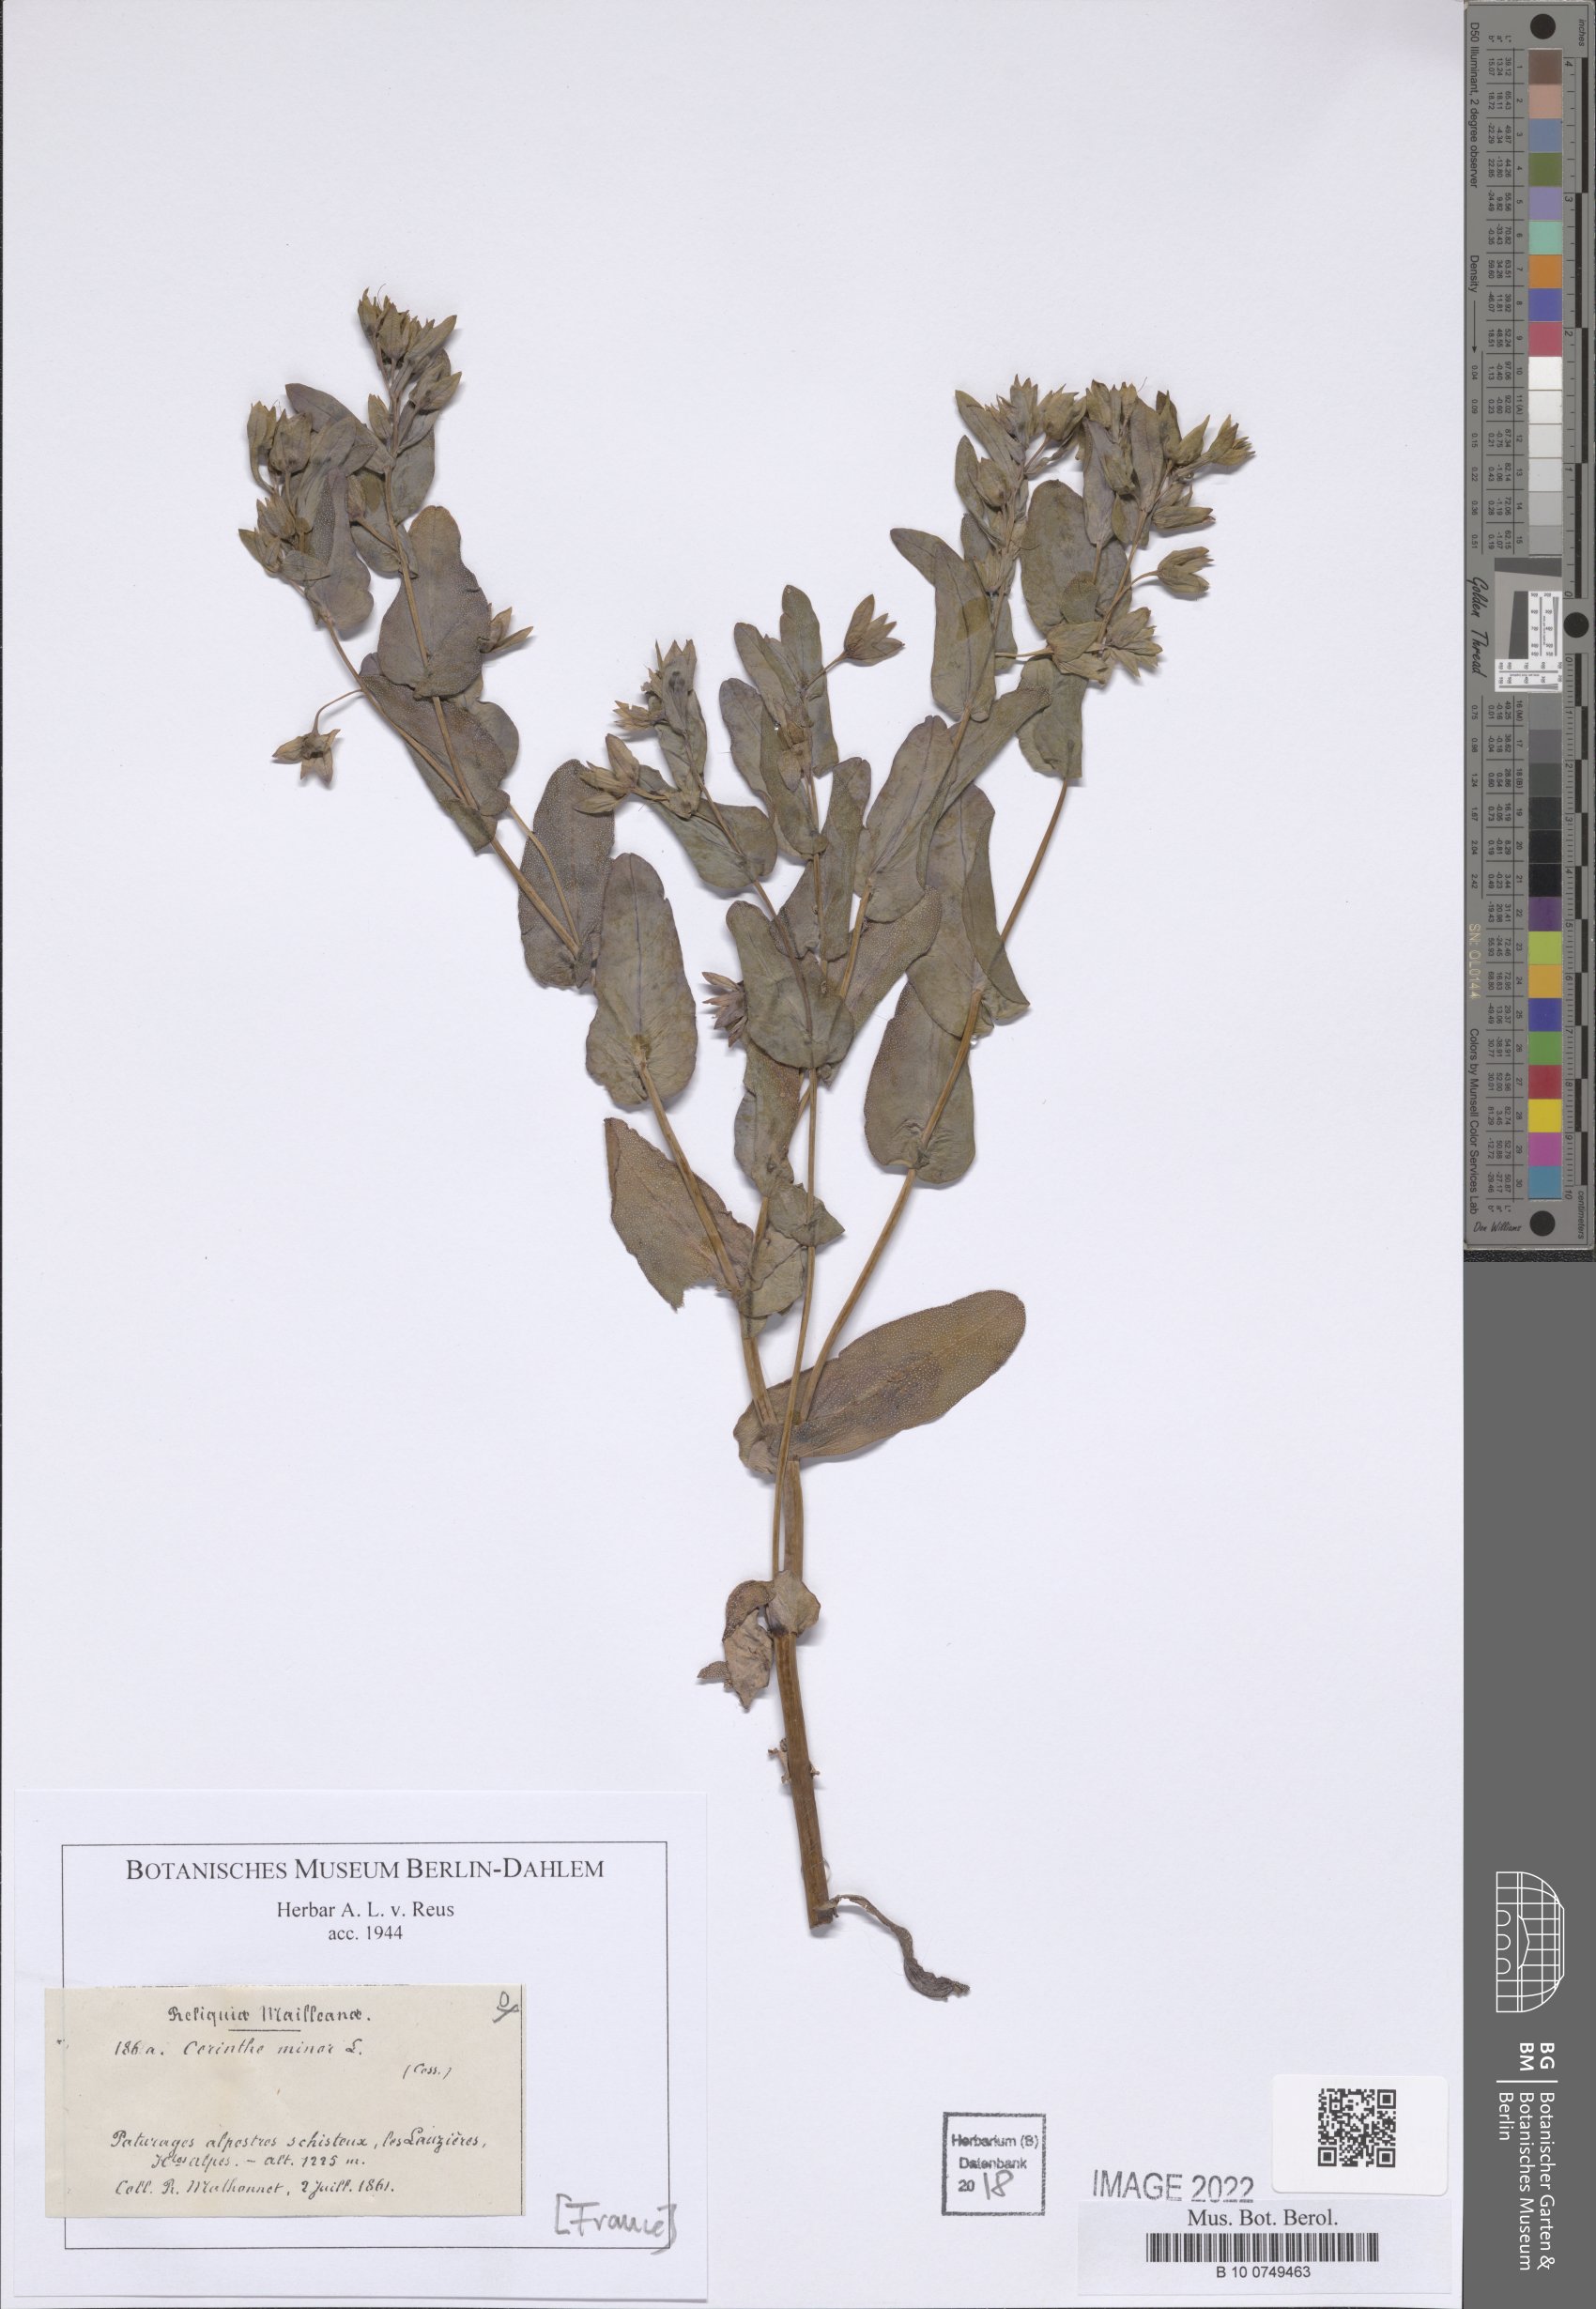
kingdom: Plantae
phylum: Tracheophyta
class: Magnoliopsida
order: Boraginales
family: Boraginaceae
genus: Cerinthe
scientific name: Cerinthe minor
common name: Lesser honeywort
